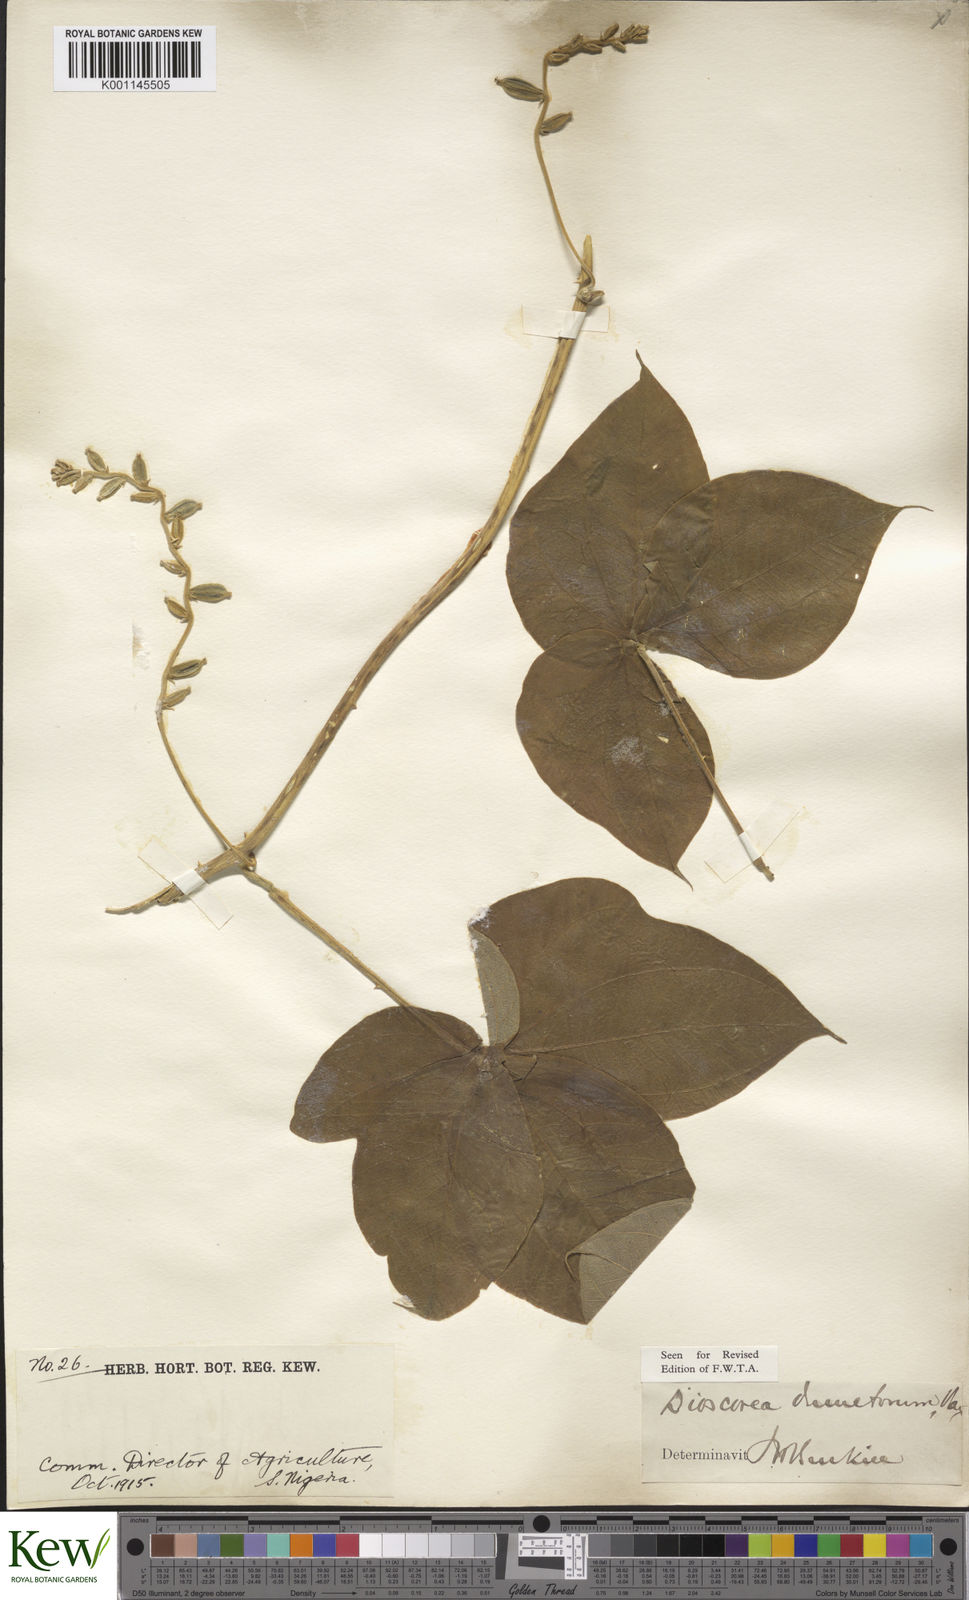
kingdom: Plantae
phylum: Tracheophyta
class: Liliopsida
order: Dioscoreales
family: Dioscoreaceae
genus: Dioscorea
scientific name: Dioscorea dumetorum
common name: African bitter yam
